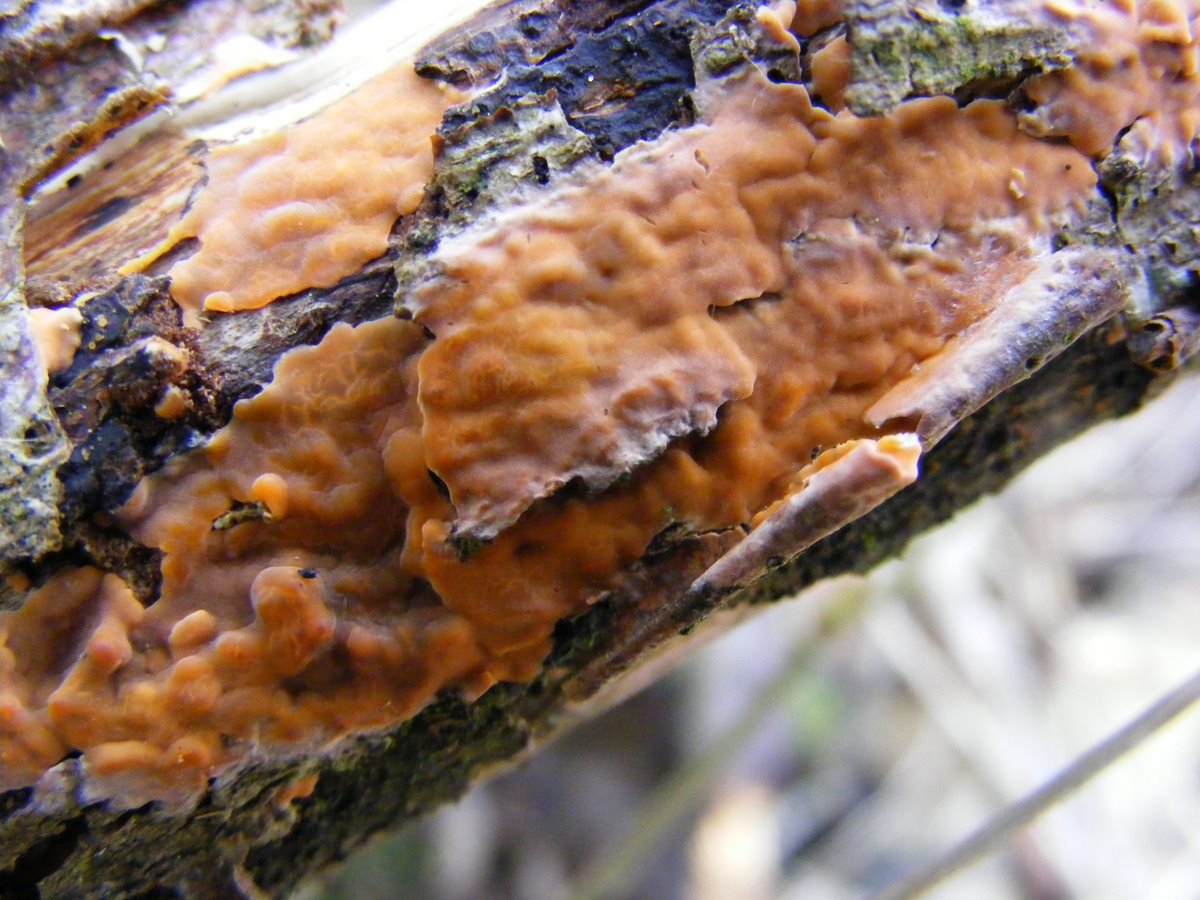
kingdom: Fungi
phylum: Basidiomycota
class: Agaricomycetes
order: Russulales
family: Peniophoraceae
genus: Peniophora
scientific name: Peniophora incarnata
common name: laksefarvet voksskind
